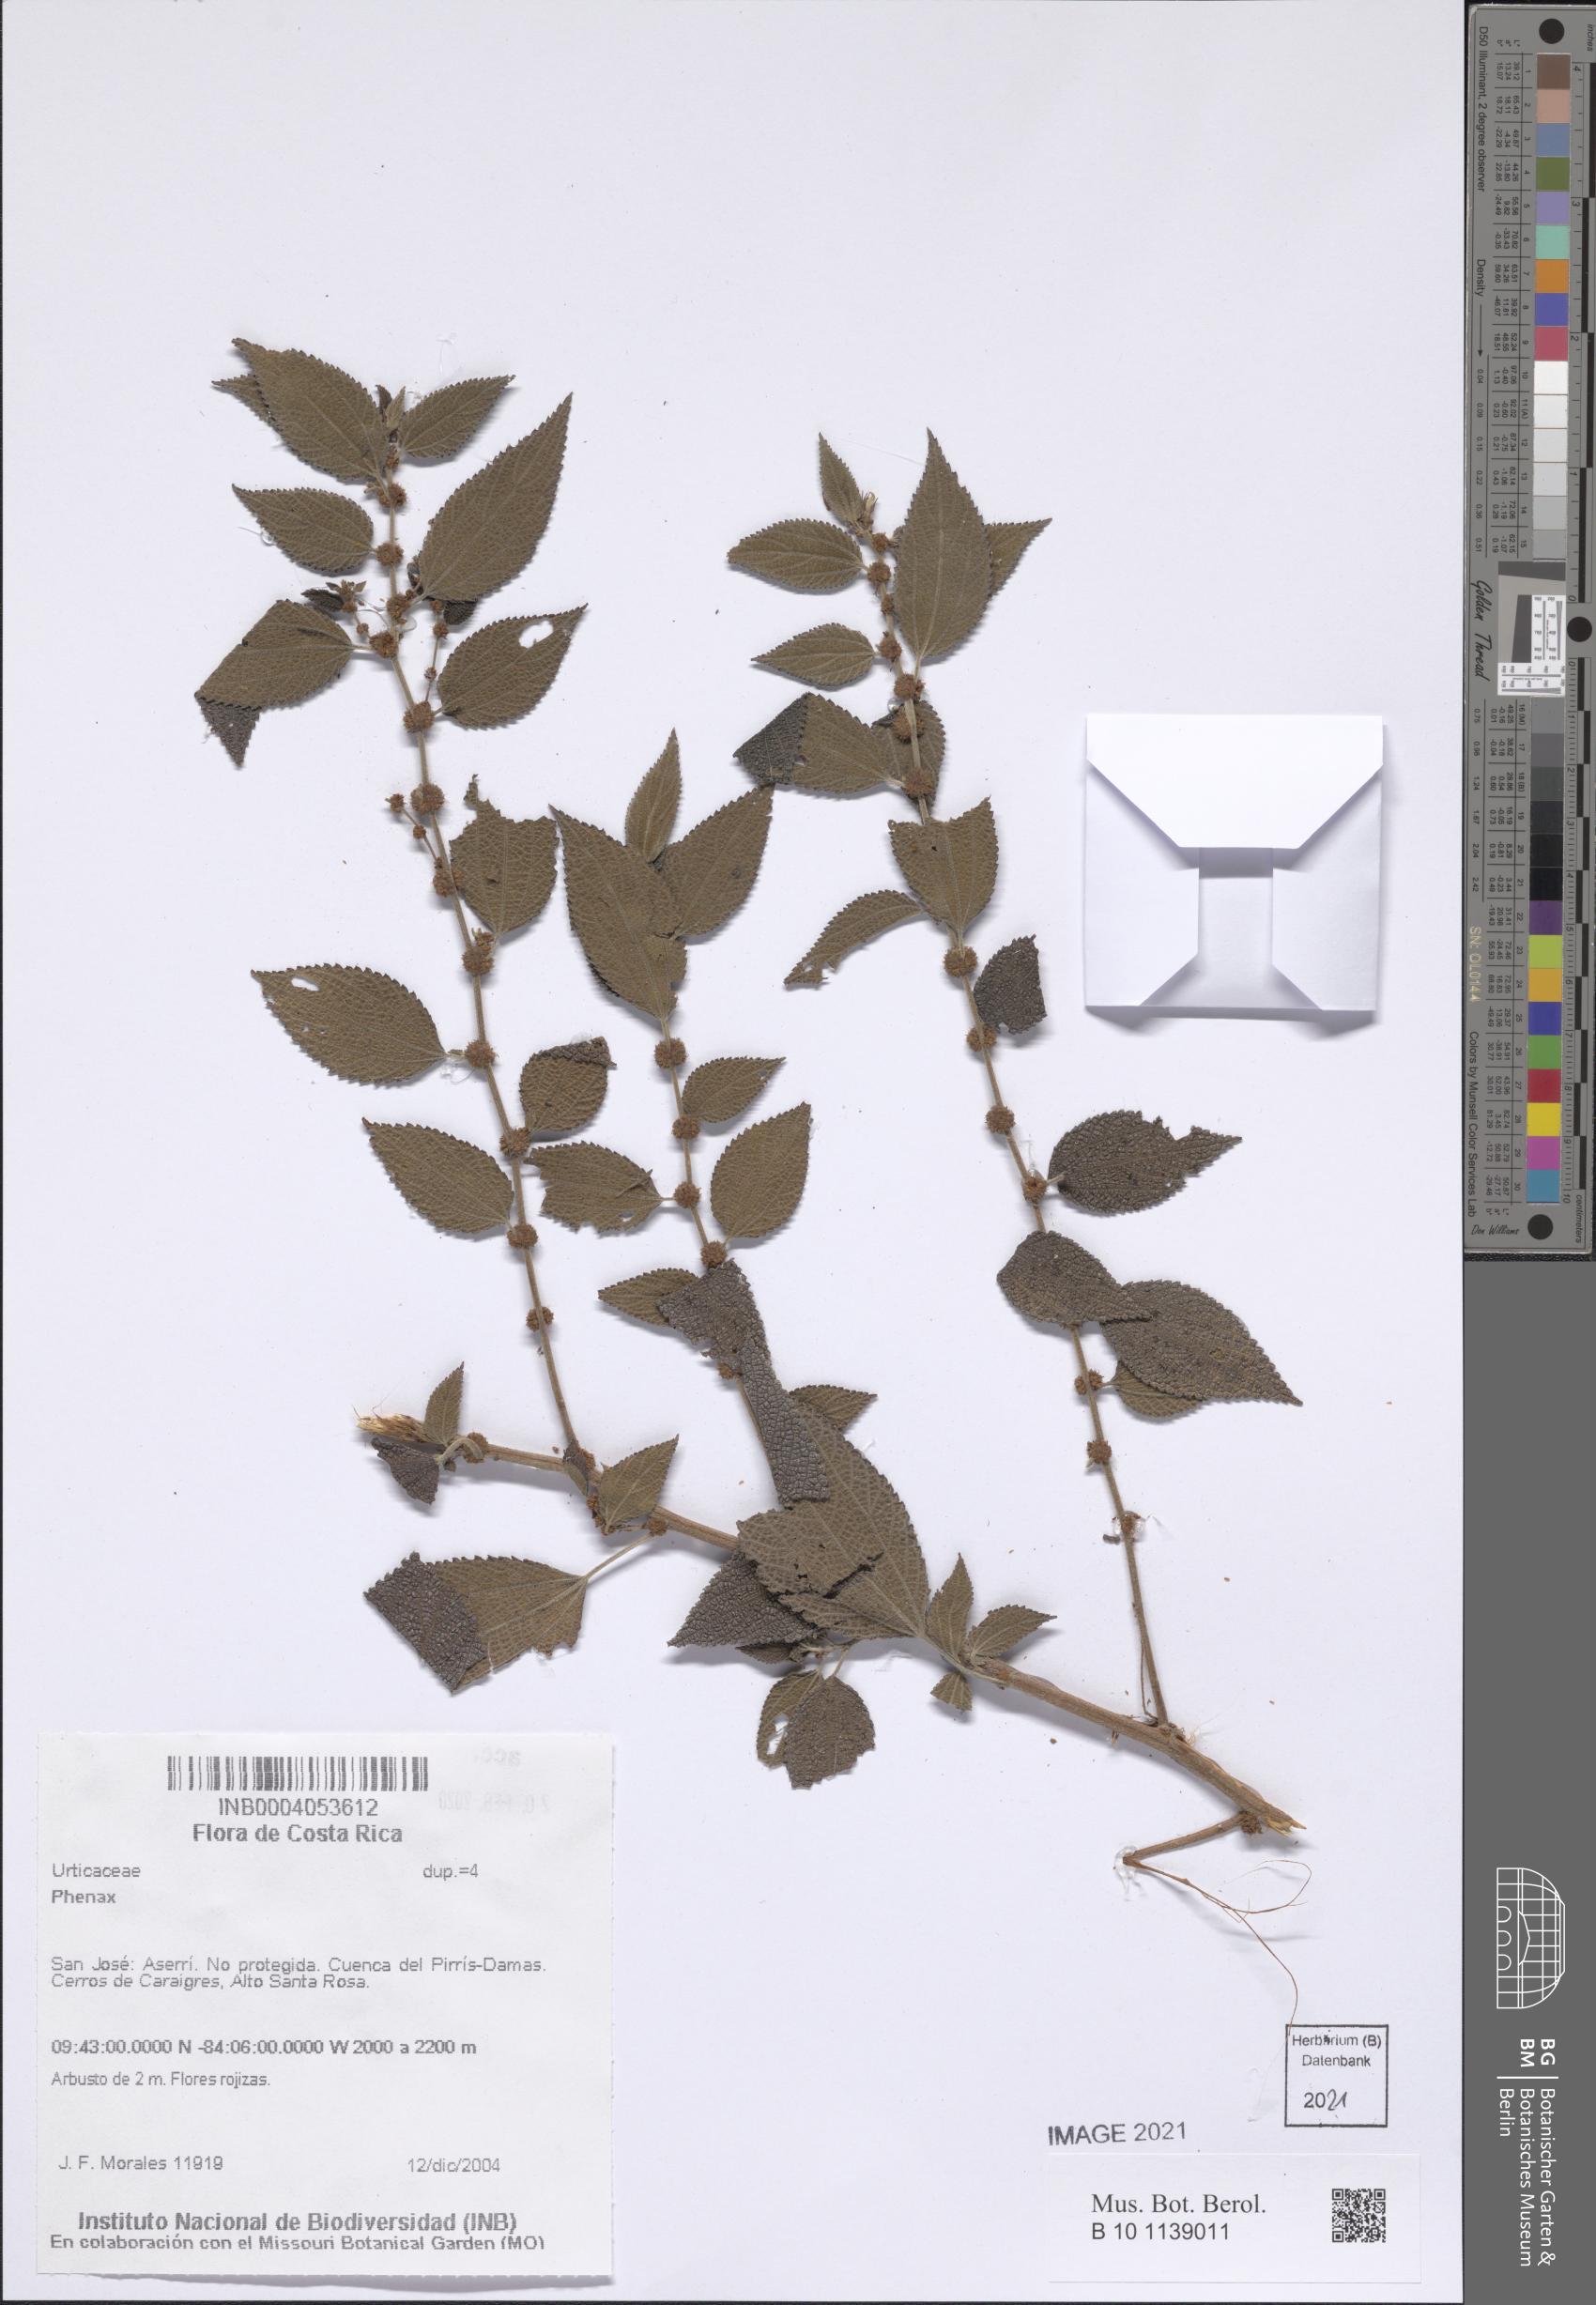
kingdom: Plantae
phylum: Tracheophyta
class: Magnoliopsida
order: Rosales
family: Urticaceae
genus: Phenax
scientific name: Phenax
